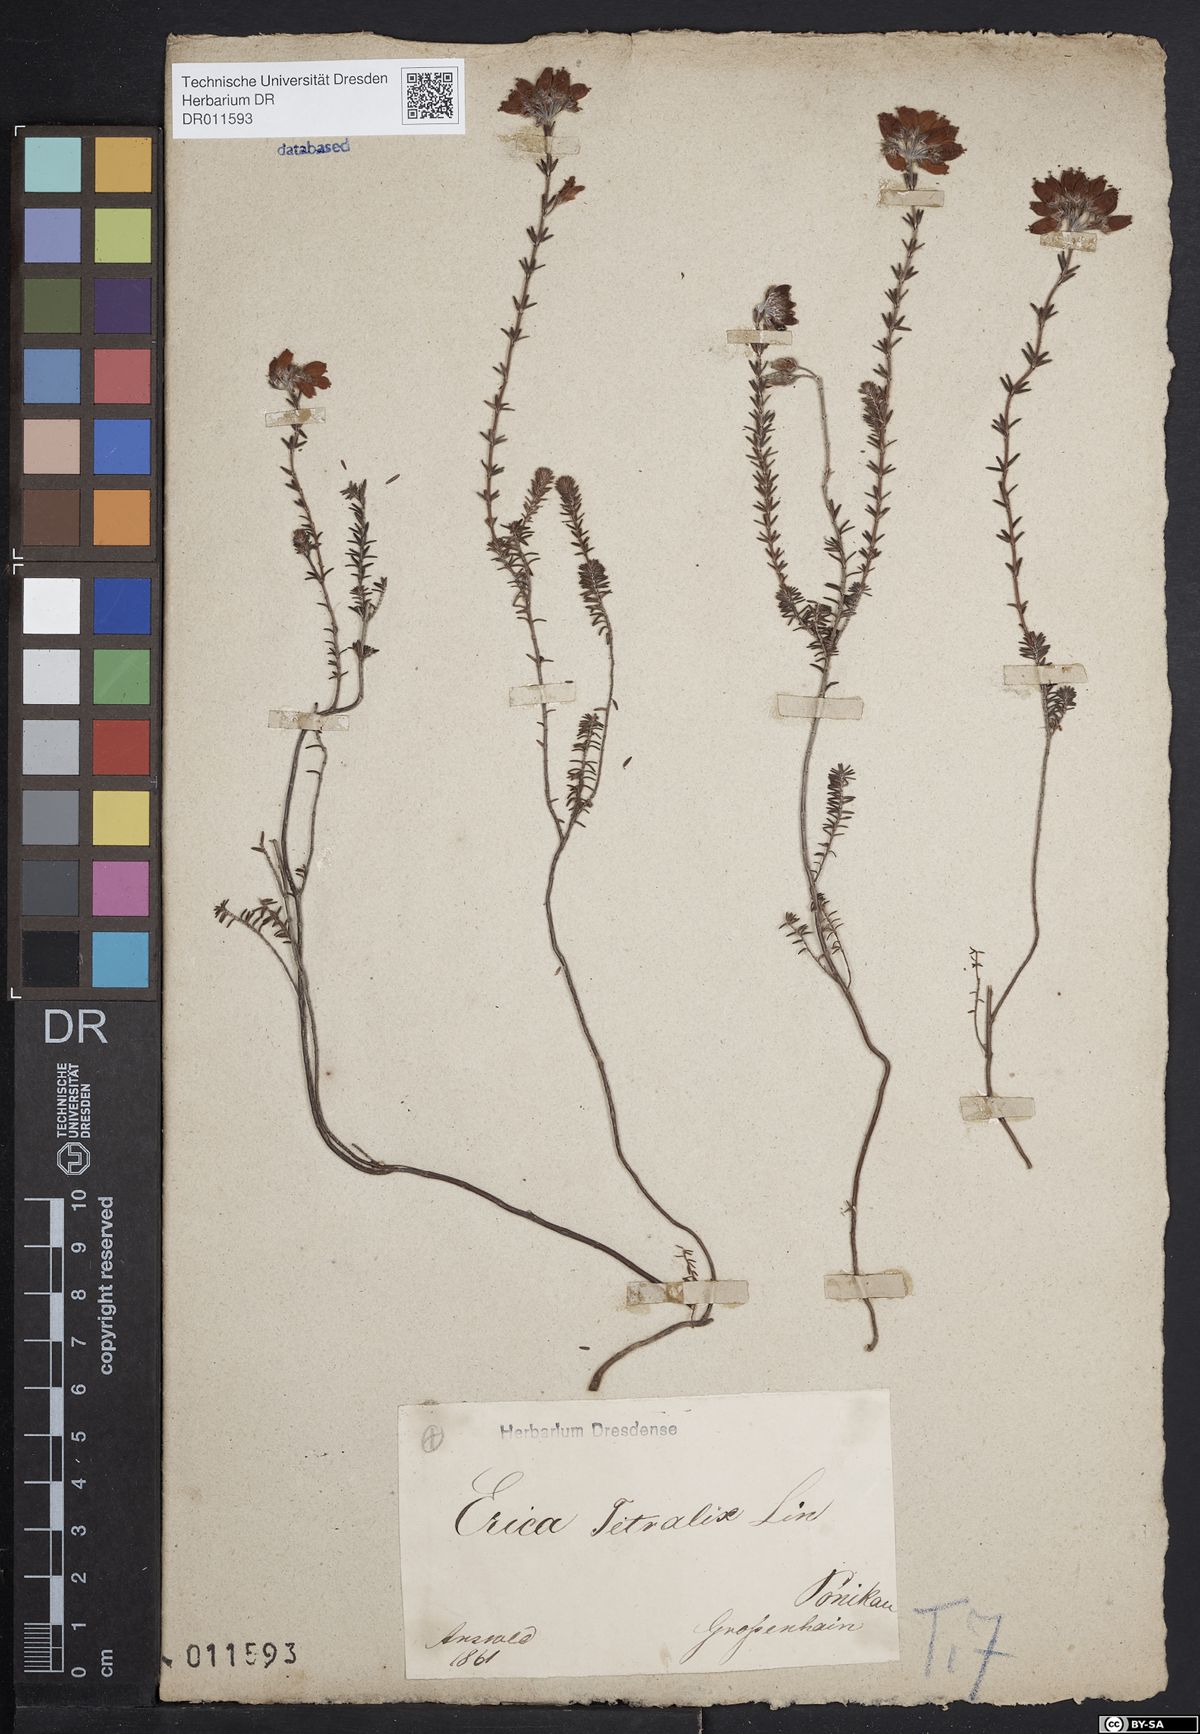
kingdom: Plantae
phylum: Tracheophyta
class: Magnoliopsida
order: Ericales
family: Ericaceae
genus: Erica
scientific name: Erica tetralix
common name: Cross-leaved heath
